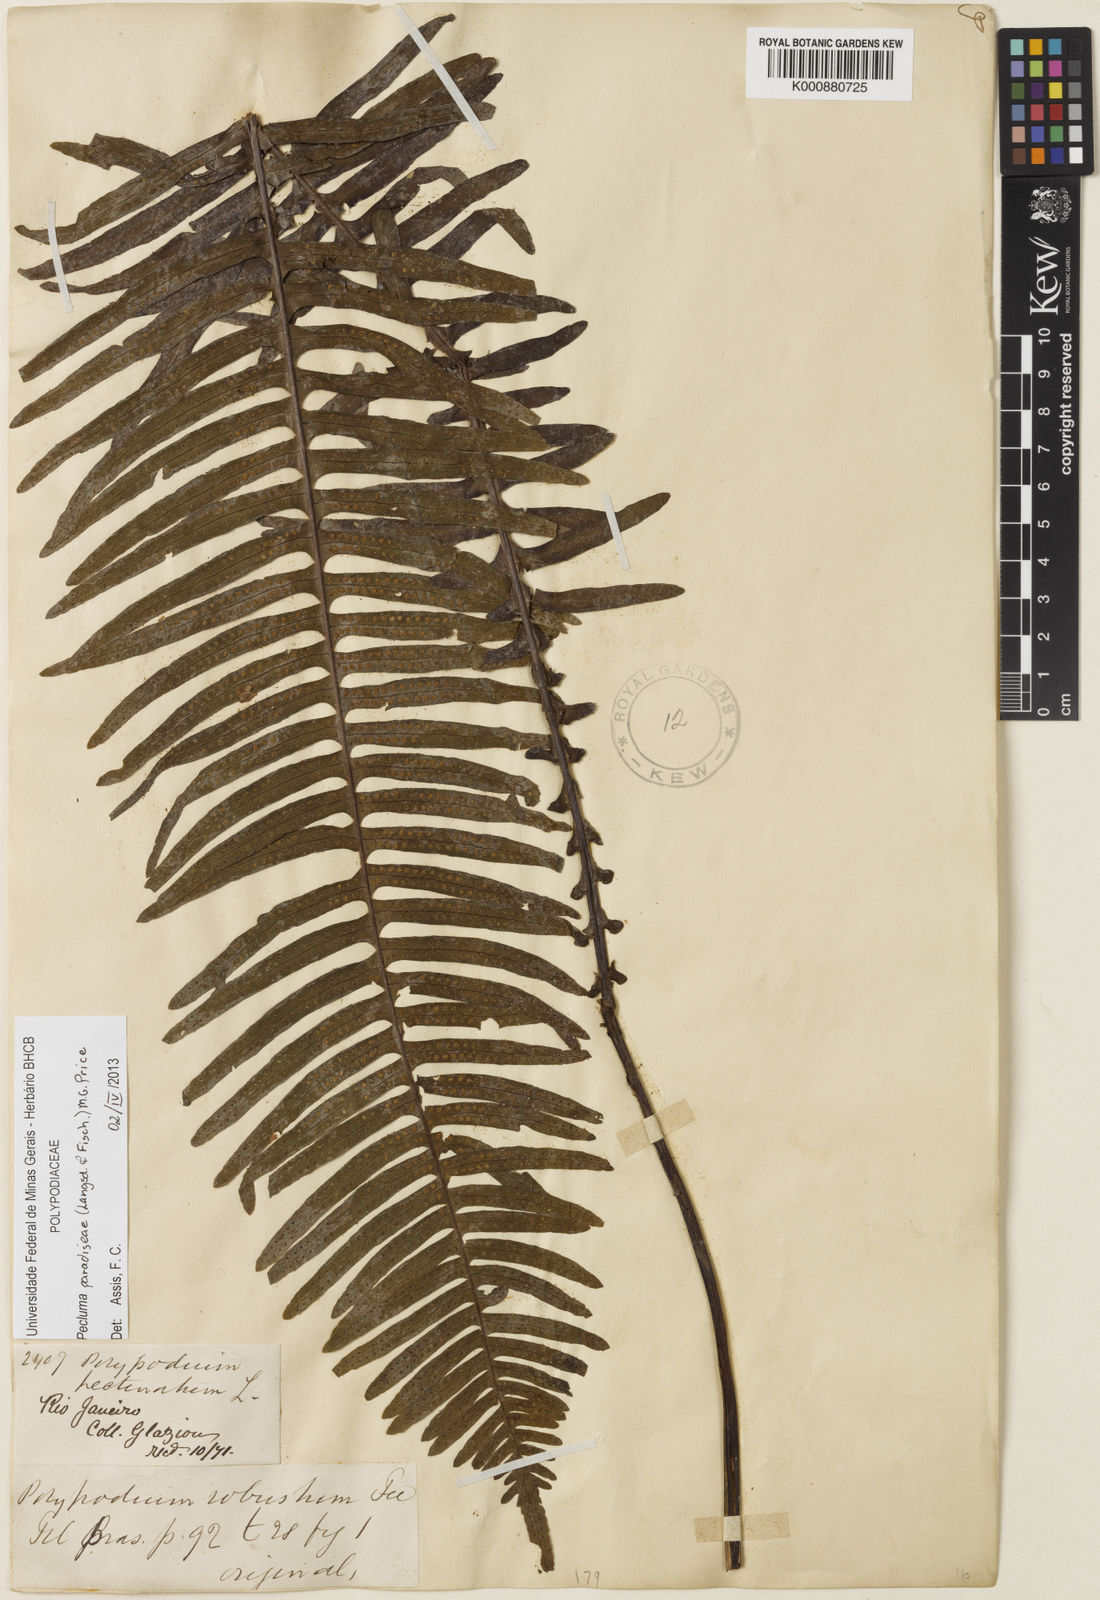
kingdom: Plantae
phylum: Tracheophyta
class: Polypodiopsida
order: Polypodiales
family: Polypodiaceae
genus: Pecluma
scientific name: Pecluma paradiseae
